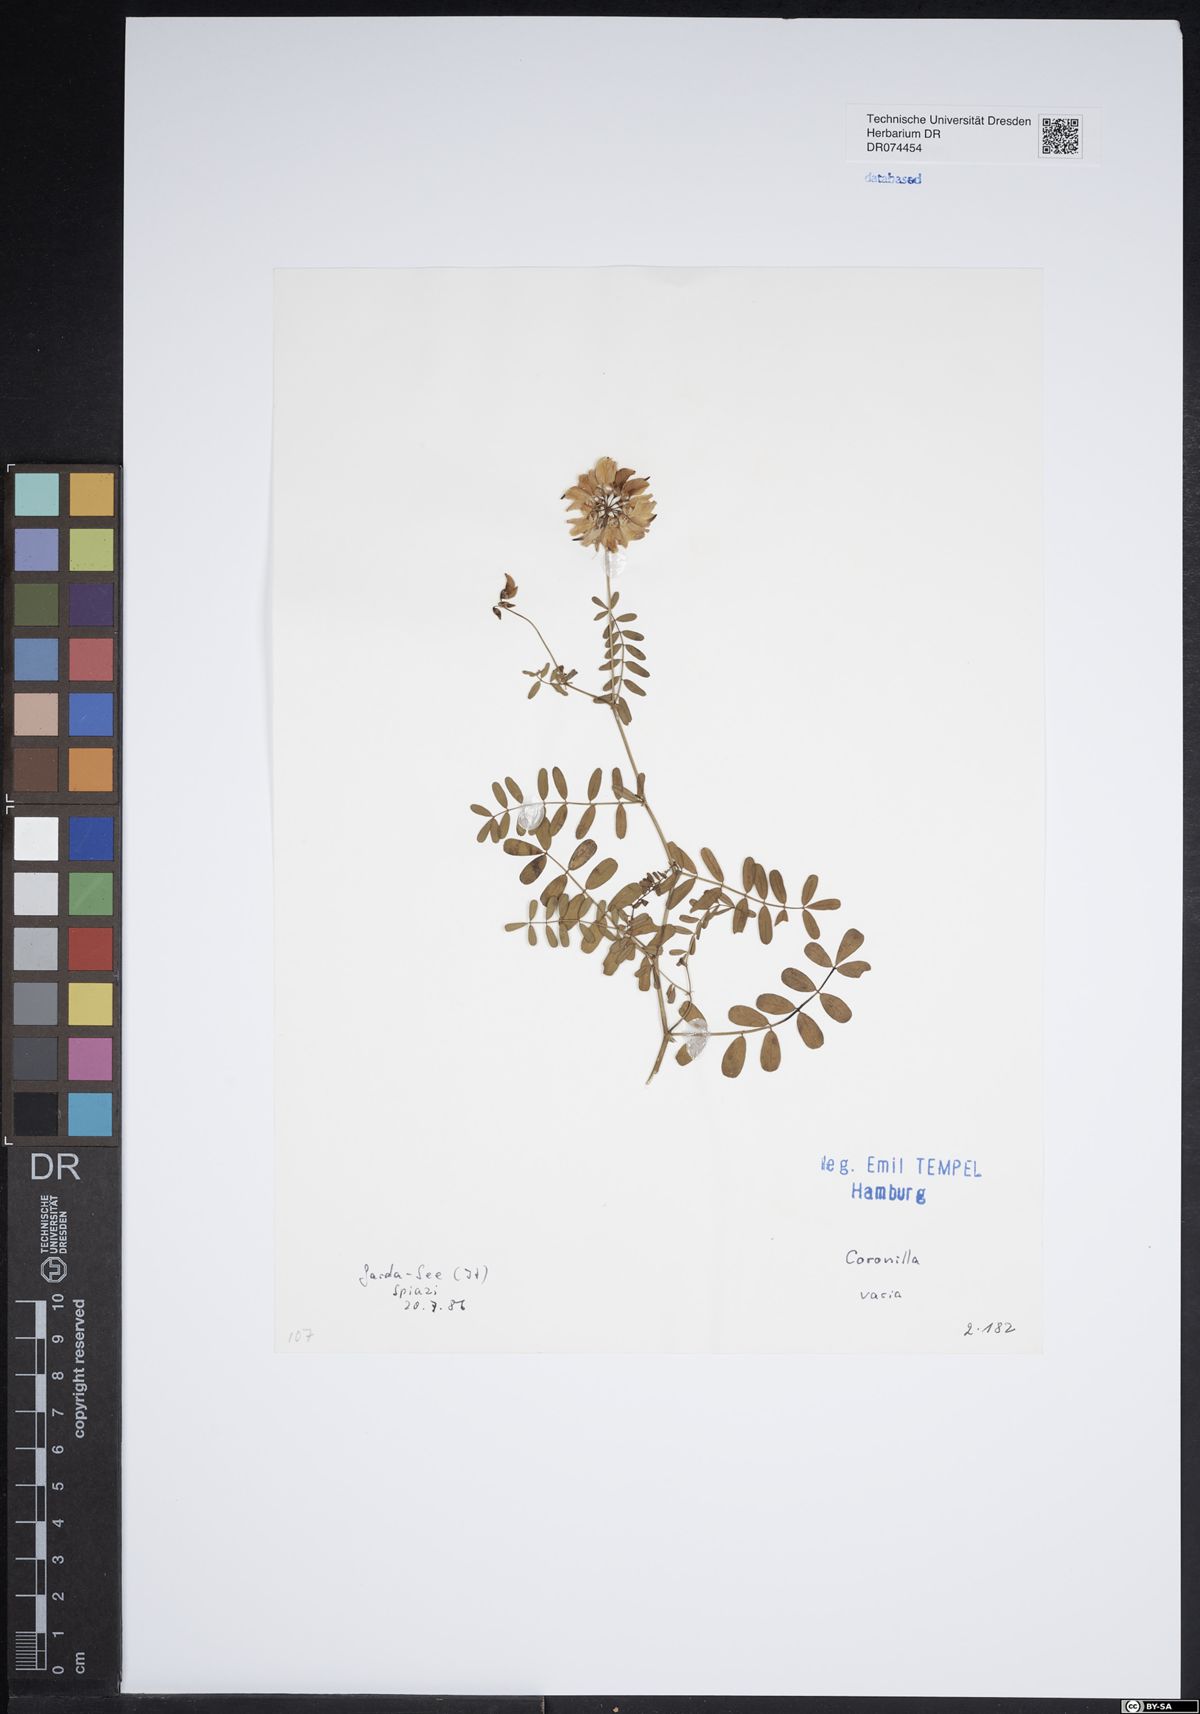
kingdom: Plantae
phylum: Tracheophyta
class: Magnoliopsida
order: Fabales
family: Fabaceae
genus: Coronilla
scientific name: Coronilla varia
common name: Crownvetch
